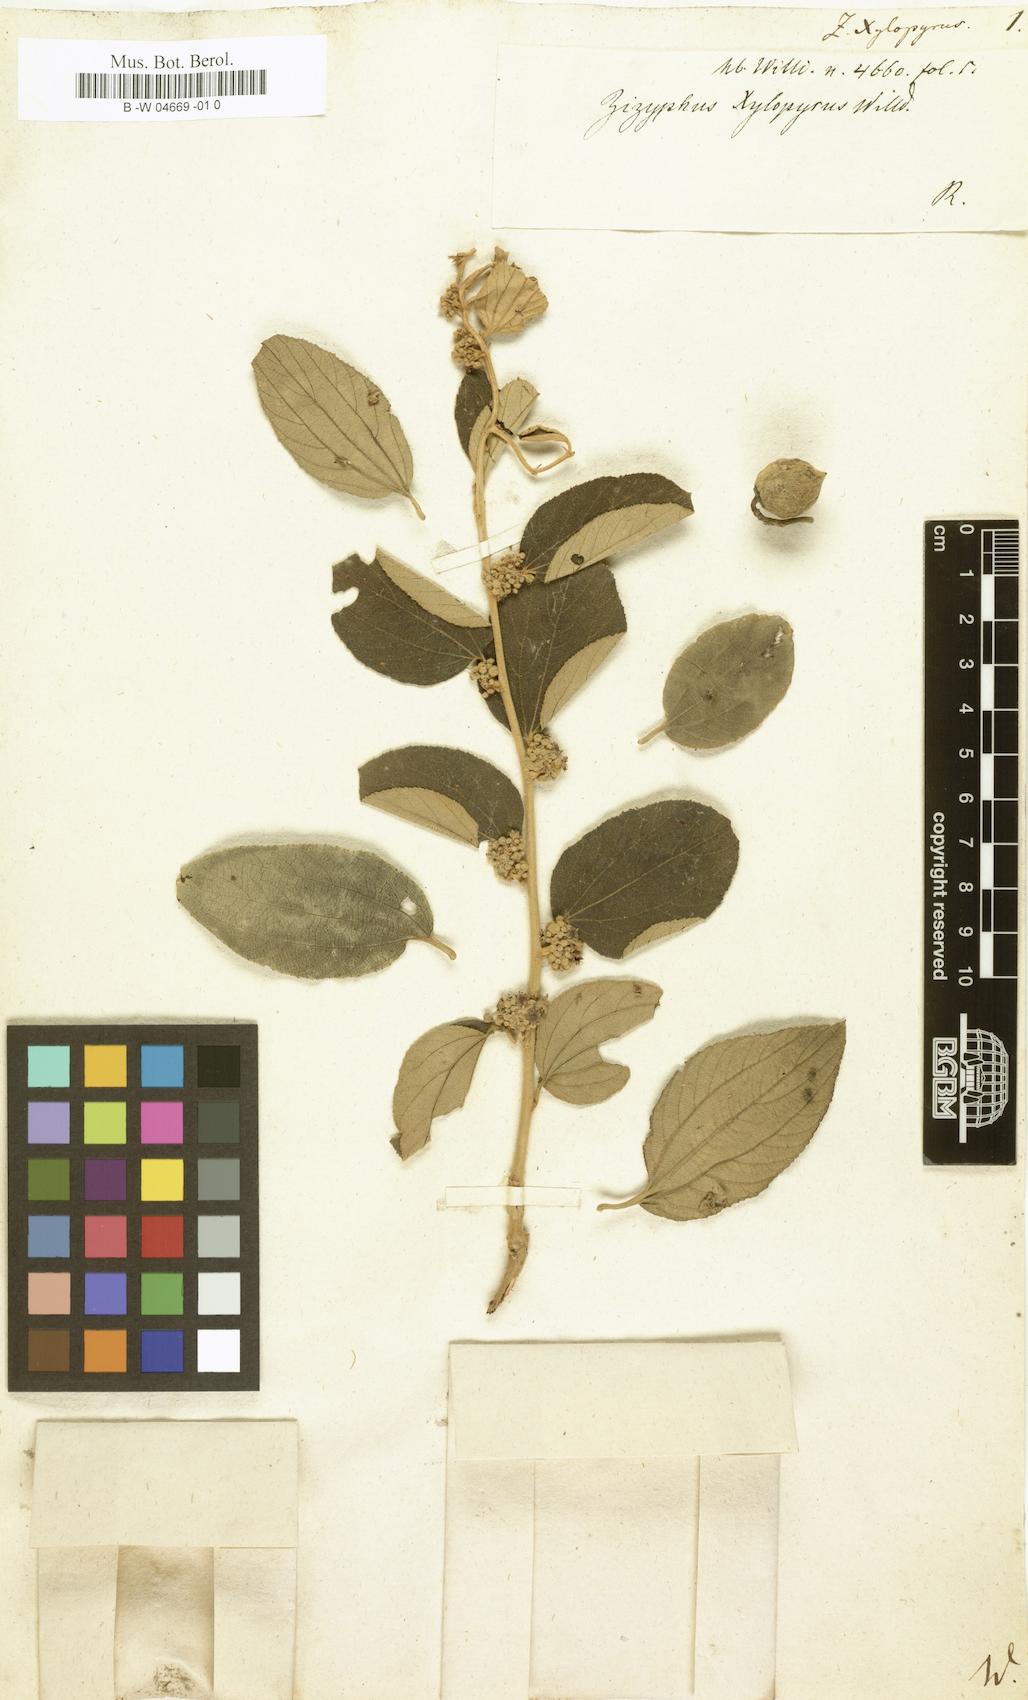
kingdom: Plantae
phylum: Tracheophyta
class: Magnoliopsida
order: Rosales
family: Rhamnaceae
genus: Ziziphus
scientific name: Ziziphus xylopyrus
